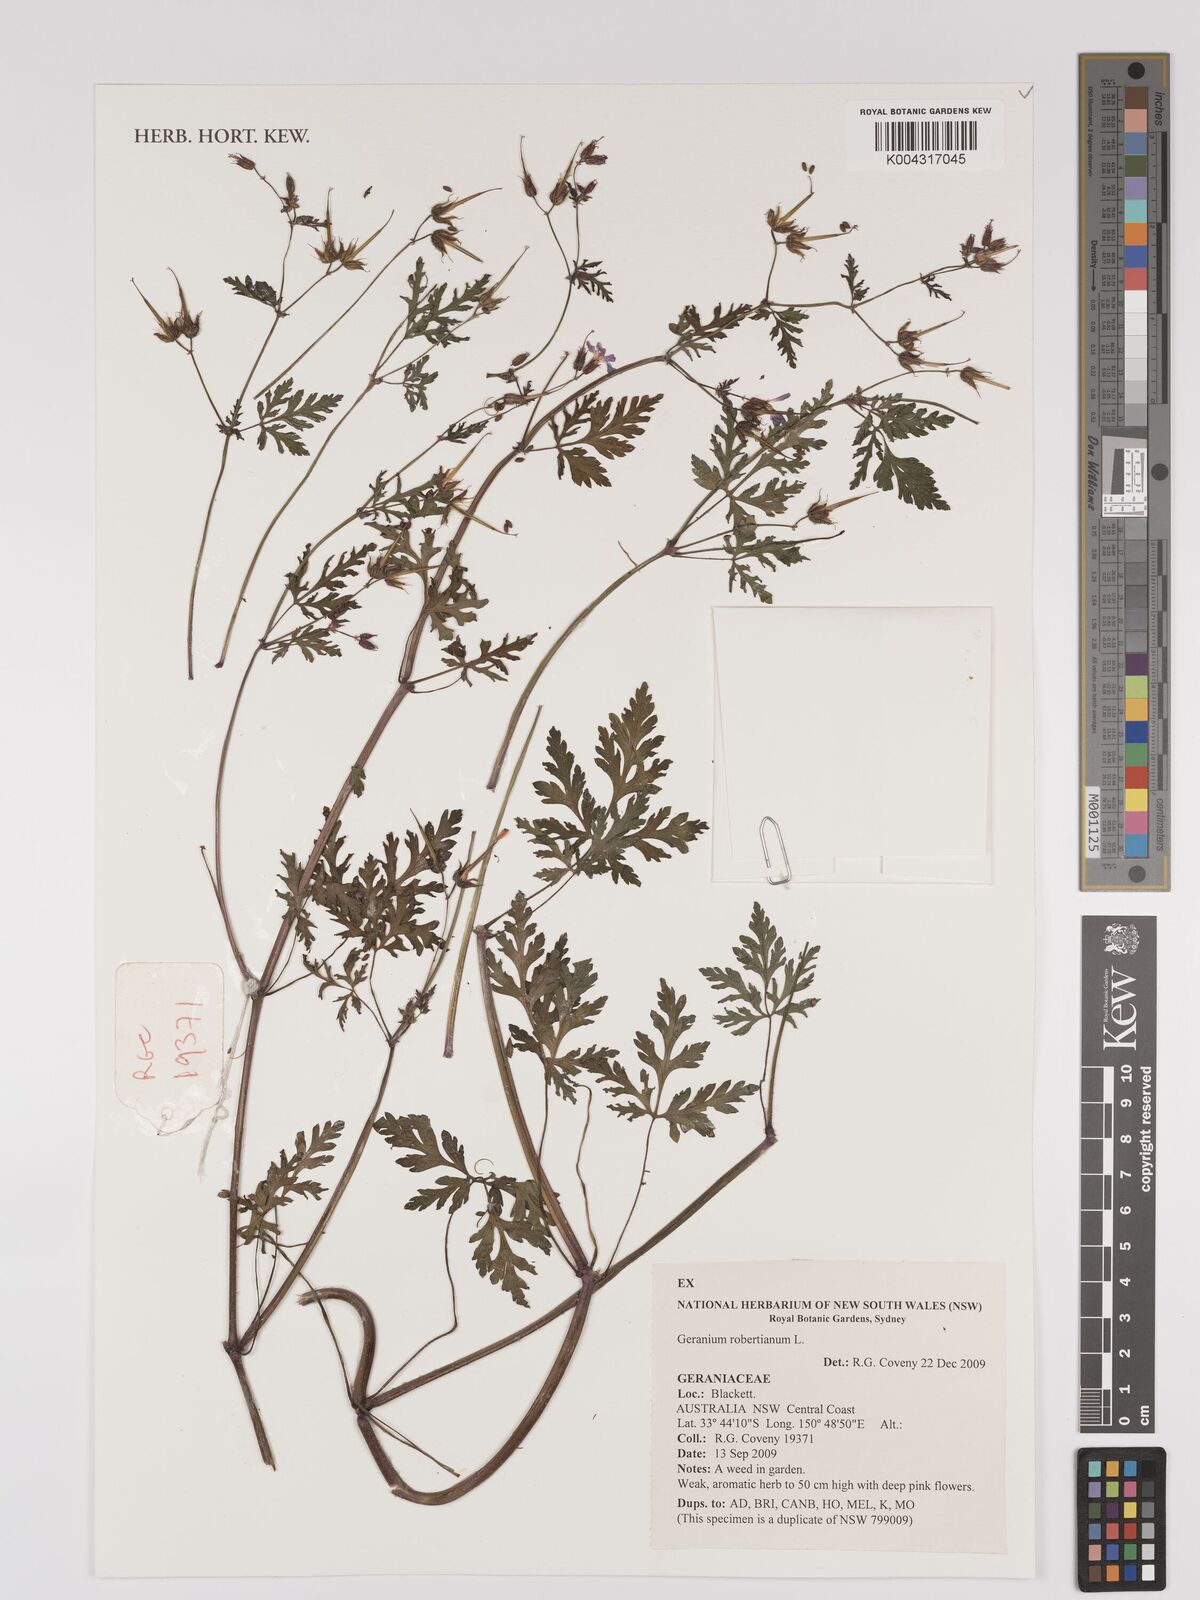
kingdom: Plantae
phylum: Tracheophyta
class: Magnoliopsida
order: Geraniales
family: Geraniaceae
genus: Geranium
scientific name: Geranium robertianum
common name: Herb-robert
